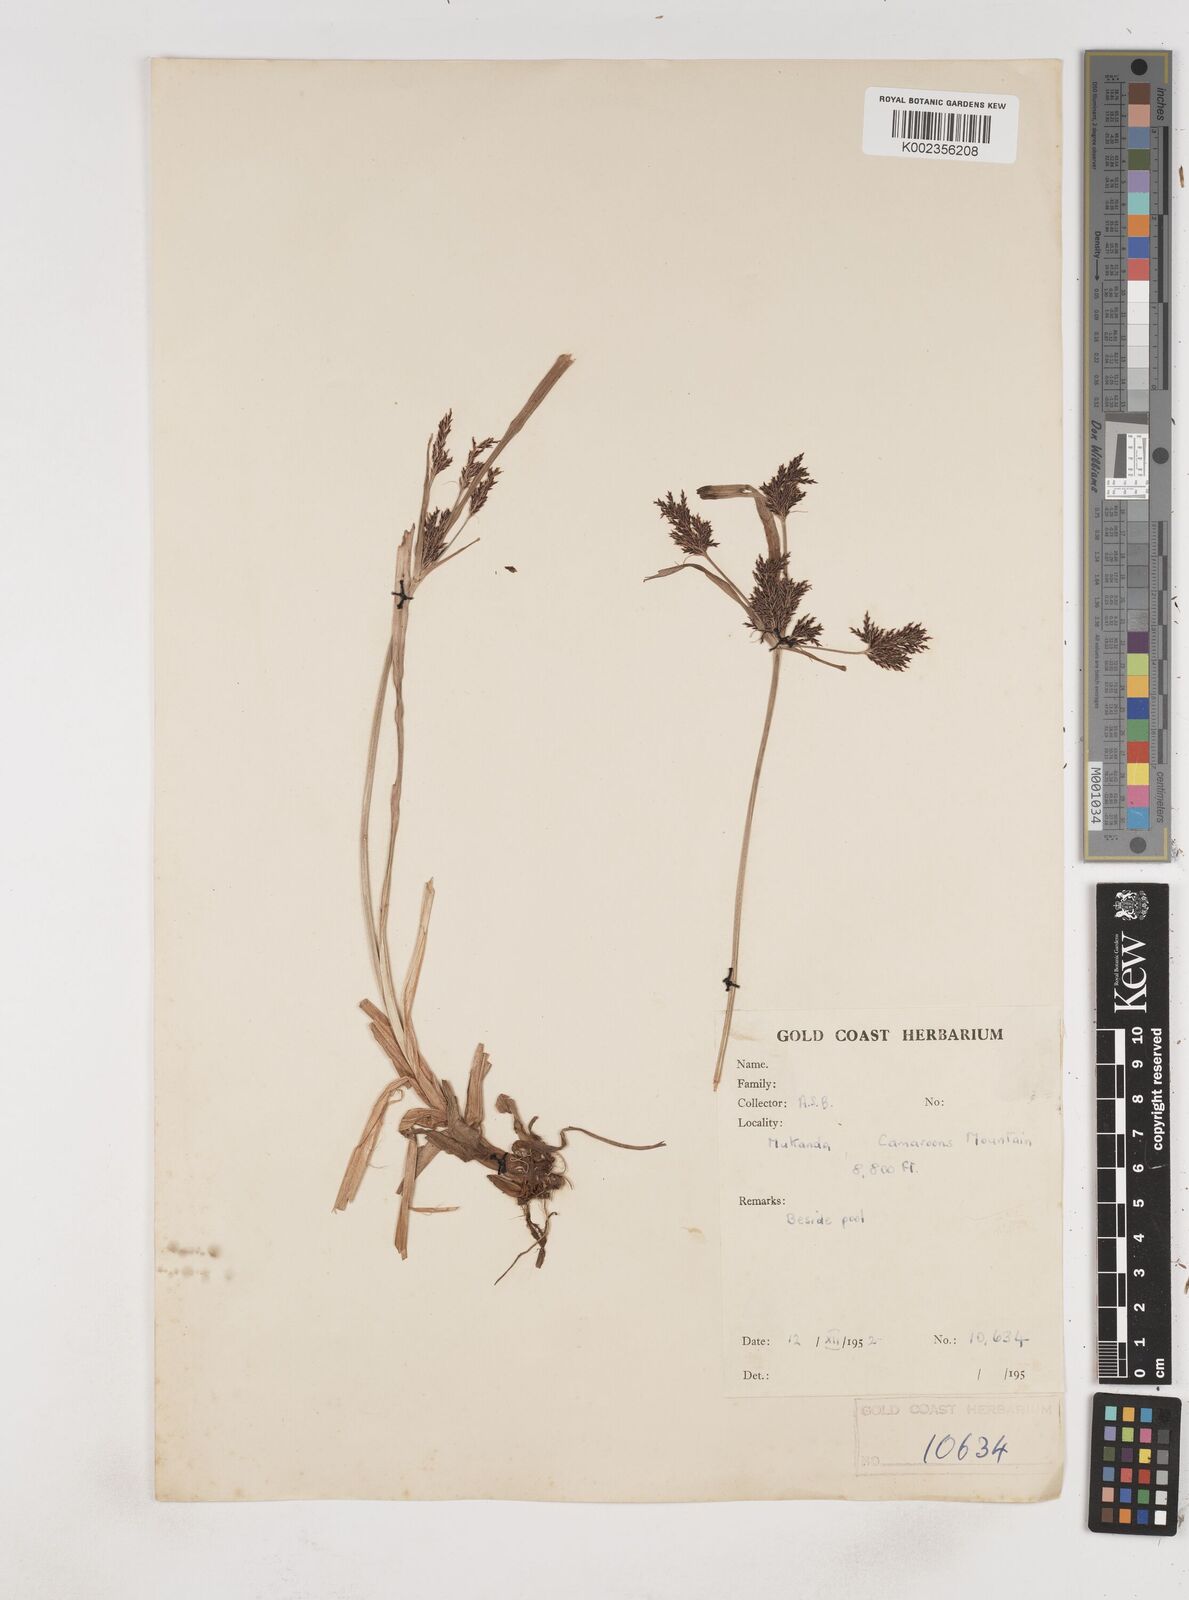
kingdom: Plantae
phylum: Tracheophyta
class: Liliopsida
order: Poales
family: Cyperaceae
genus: Cyperus
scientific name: Cyperus aterrimus
